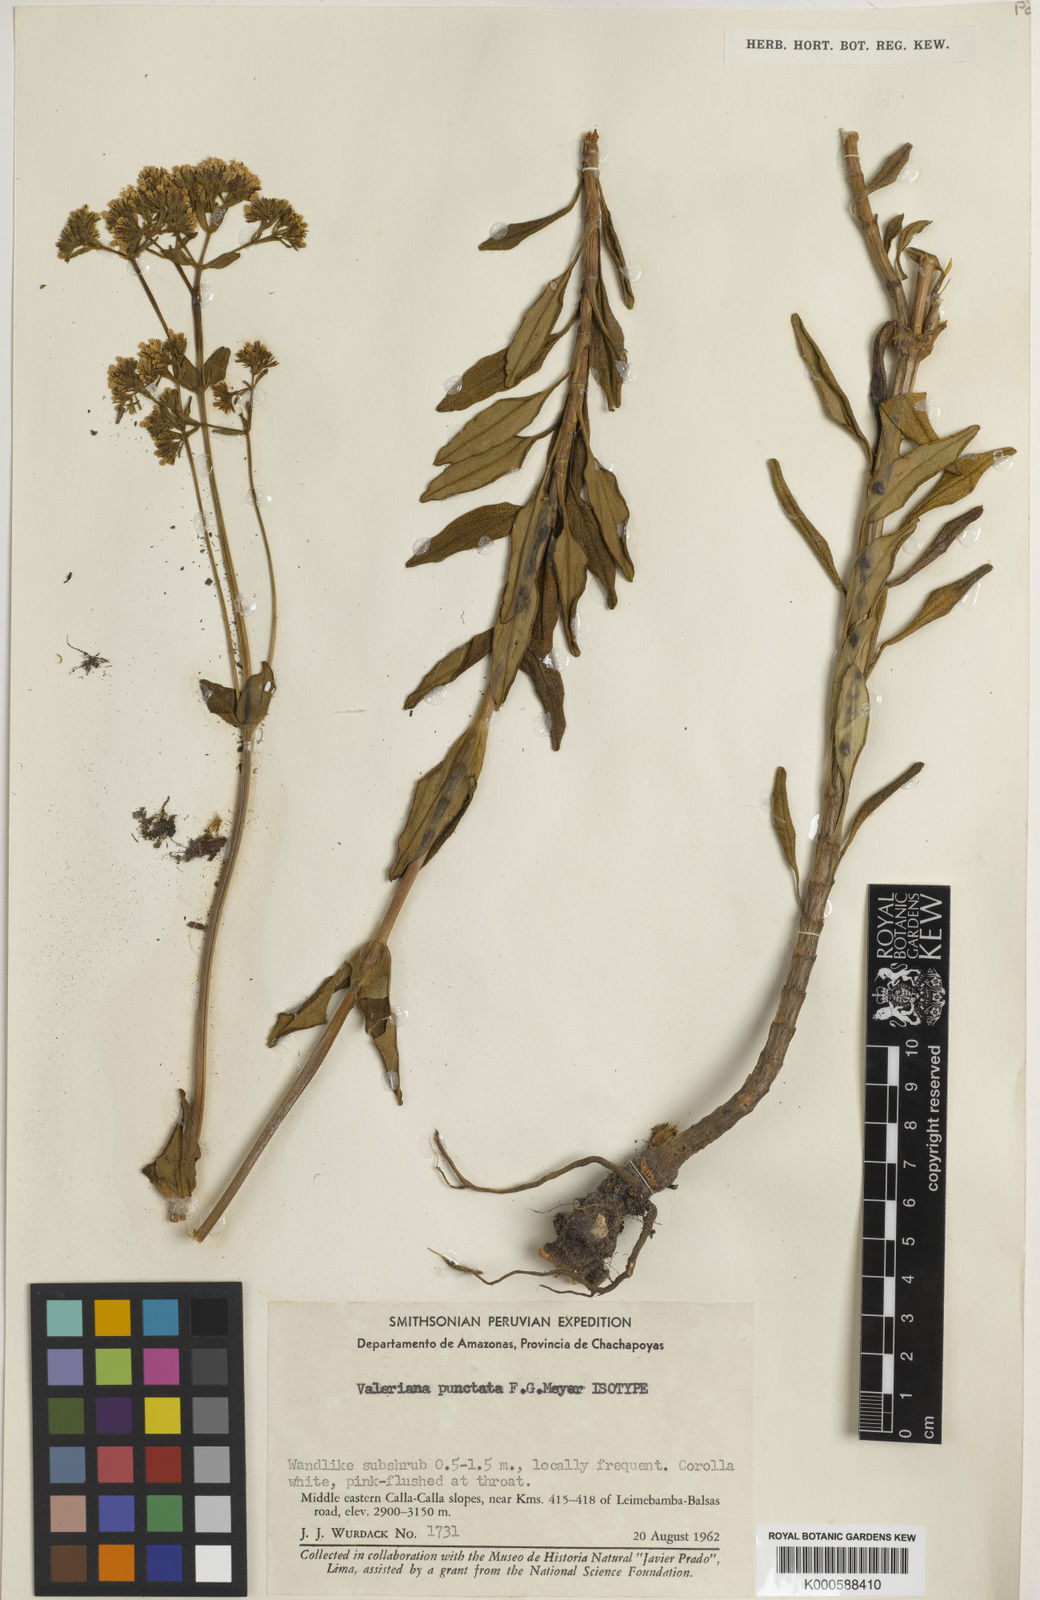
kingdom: Plantae
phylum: Tracheophyta
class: Magnoliopsida
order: Dipsacales
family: Caprifoliaceae
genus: Valeriana
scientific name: Valeriana punctata
